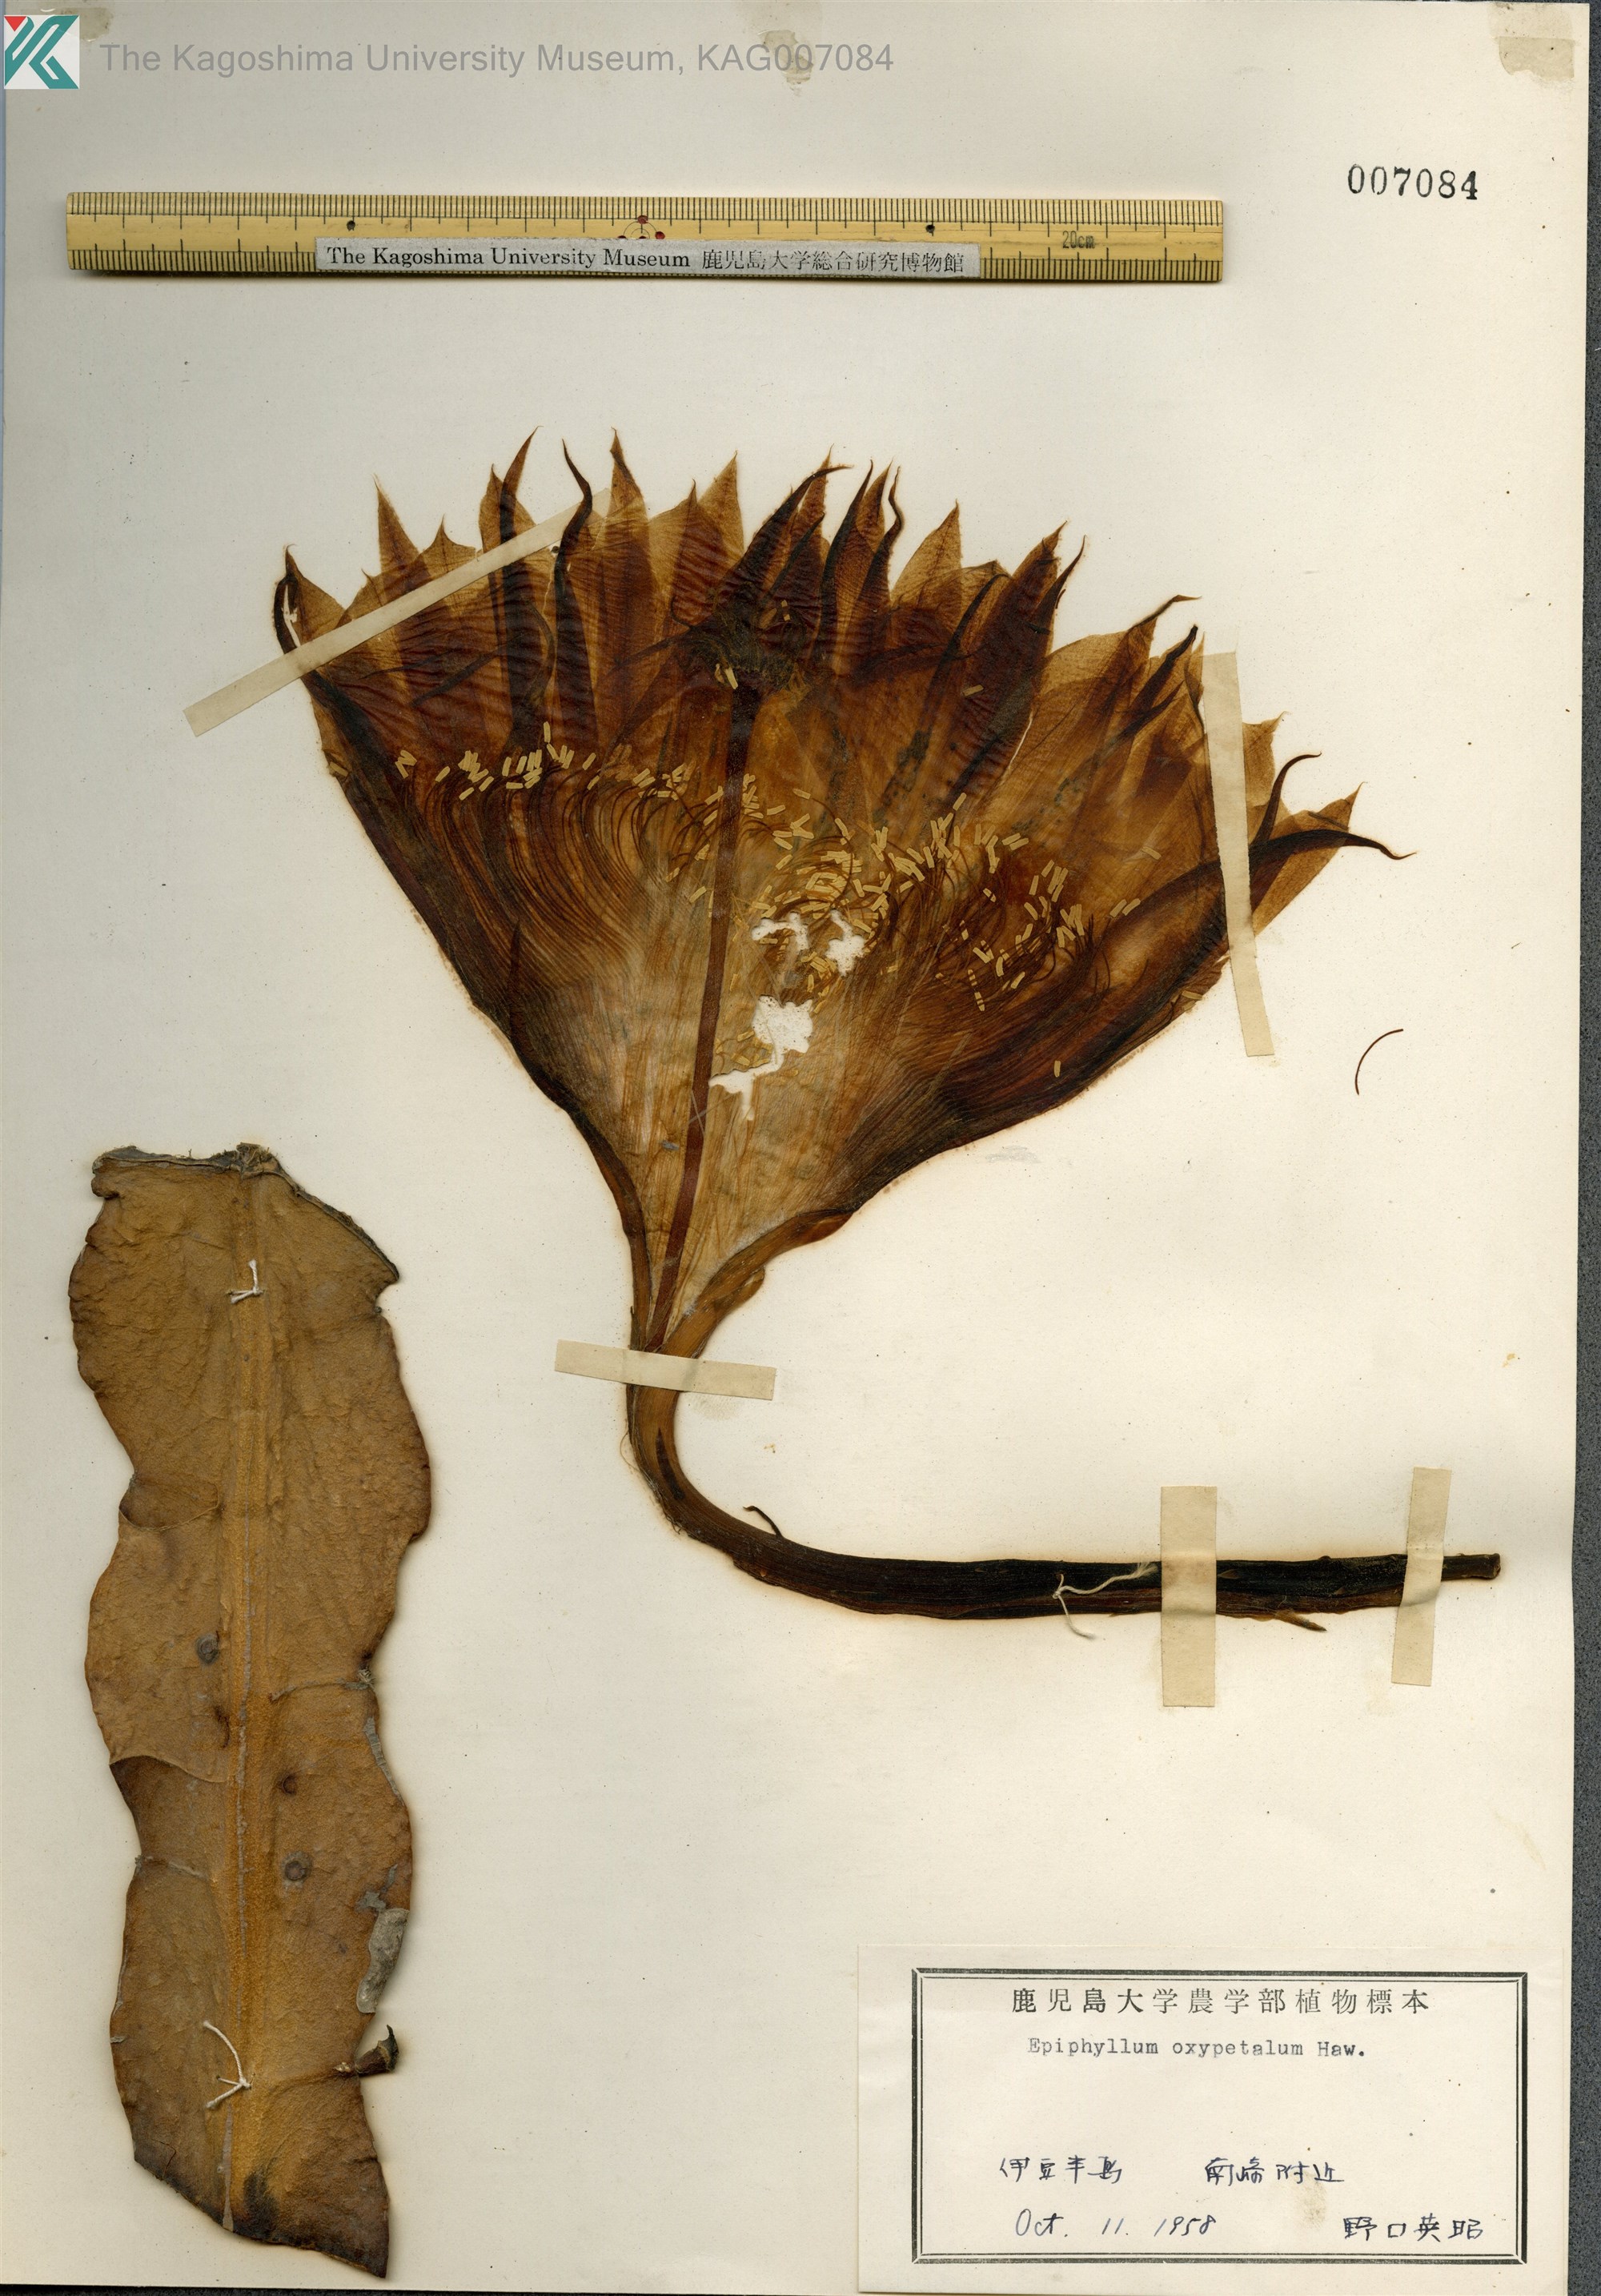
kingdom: Plantae
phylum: Tracheophyta
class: Magnoliopsida
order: Caryophyllales
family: Cactaceae
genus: Epiphyllum
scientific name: Epiphyllum oxypetalum
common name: Dutchman's pipe cactus
